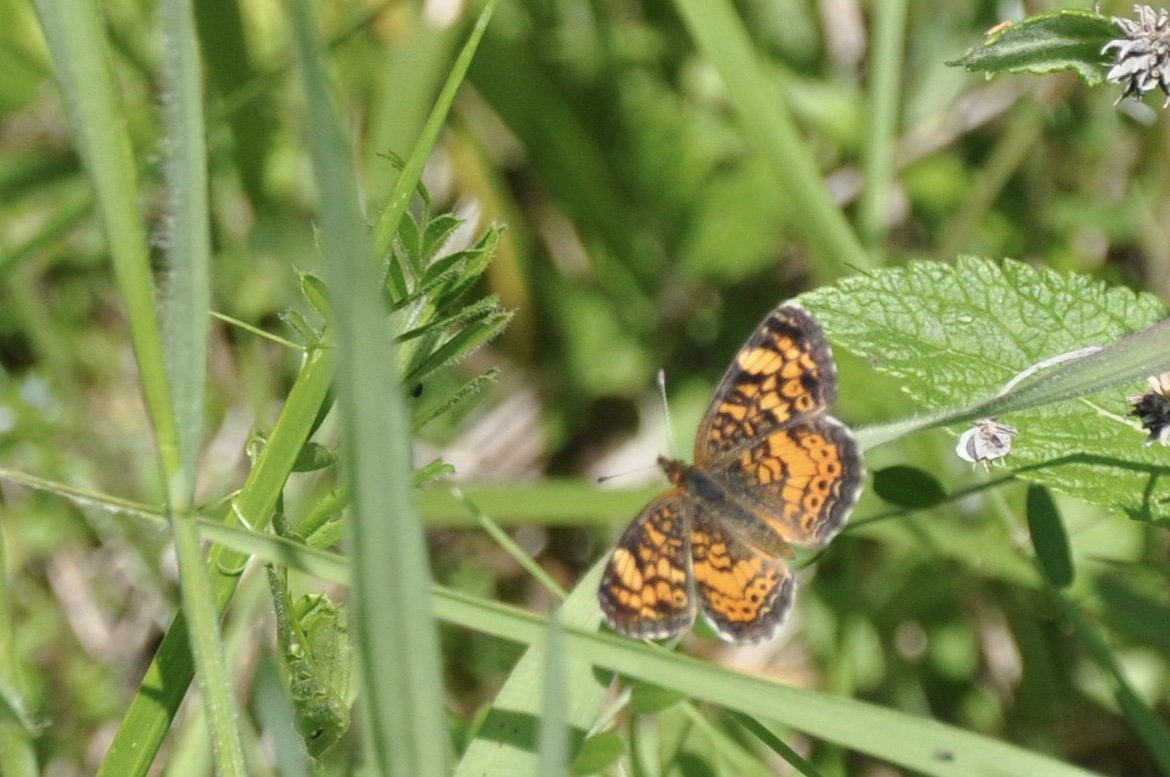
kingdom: Animalia
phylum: Arthropoda
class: Insecta
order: Lepidoptera
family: Nymphalidae
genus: Phyciodes
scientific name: Phyciodes tharos
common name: Pearl Crescent
